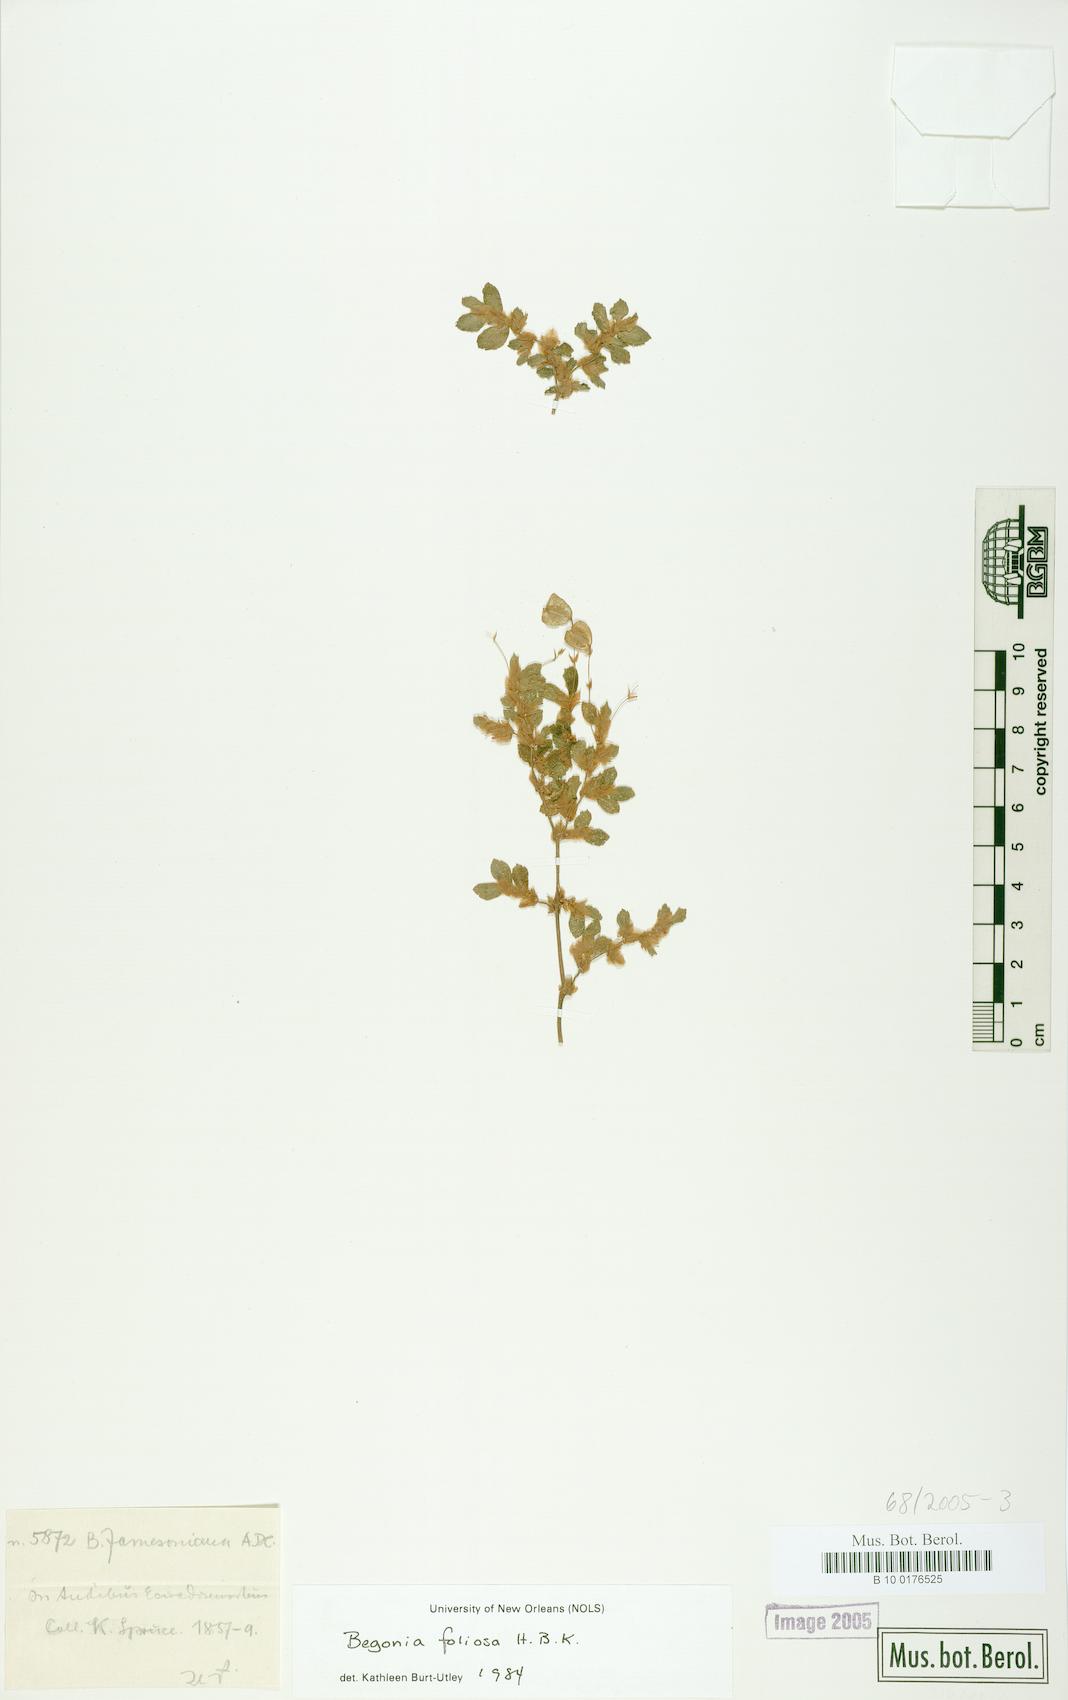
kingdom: Plantae
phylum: Tracheophyta
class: Magnoliopsida
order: Cucurbitales
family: Begoniaceae
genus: Begonia
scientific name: Begonia foliosa
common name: Fern begonia
